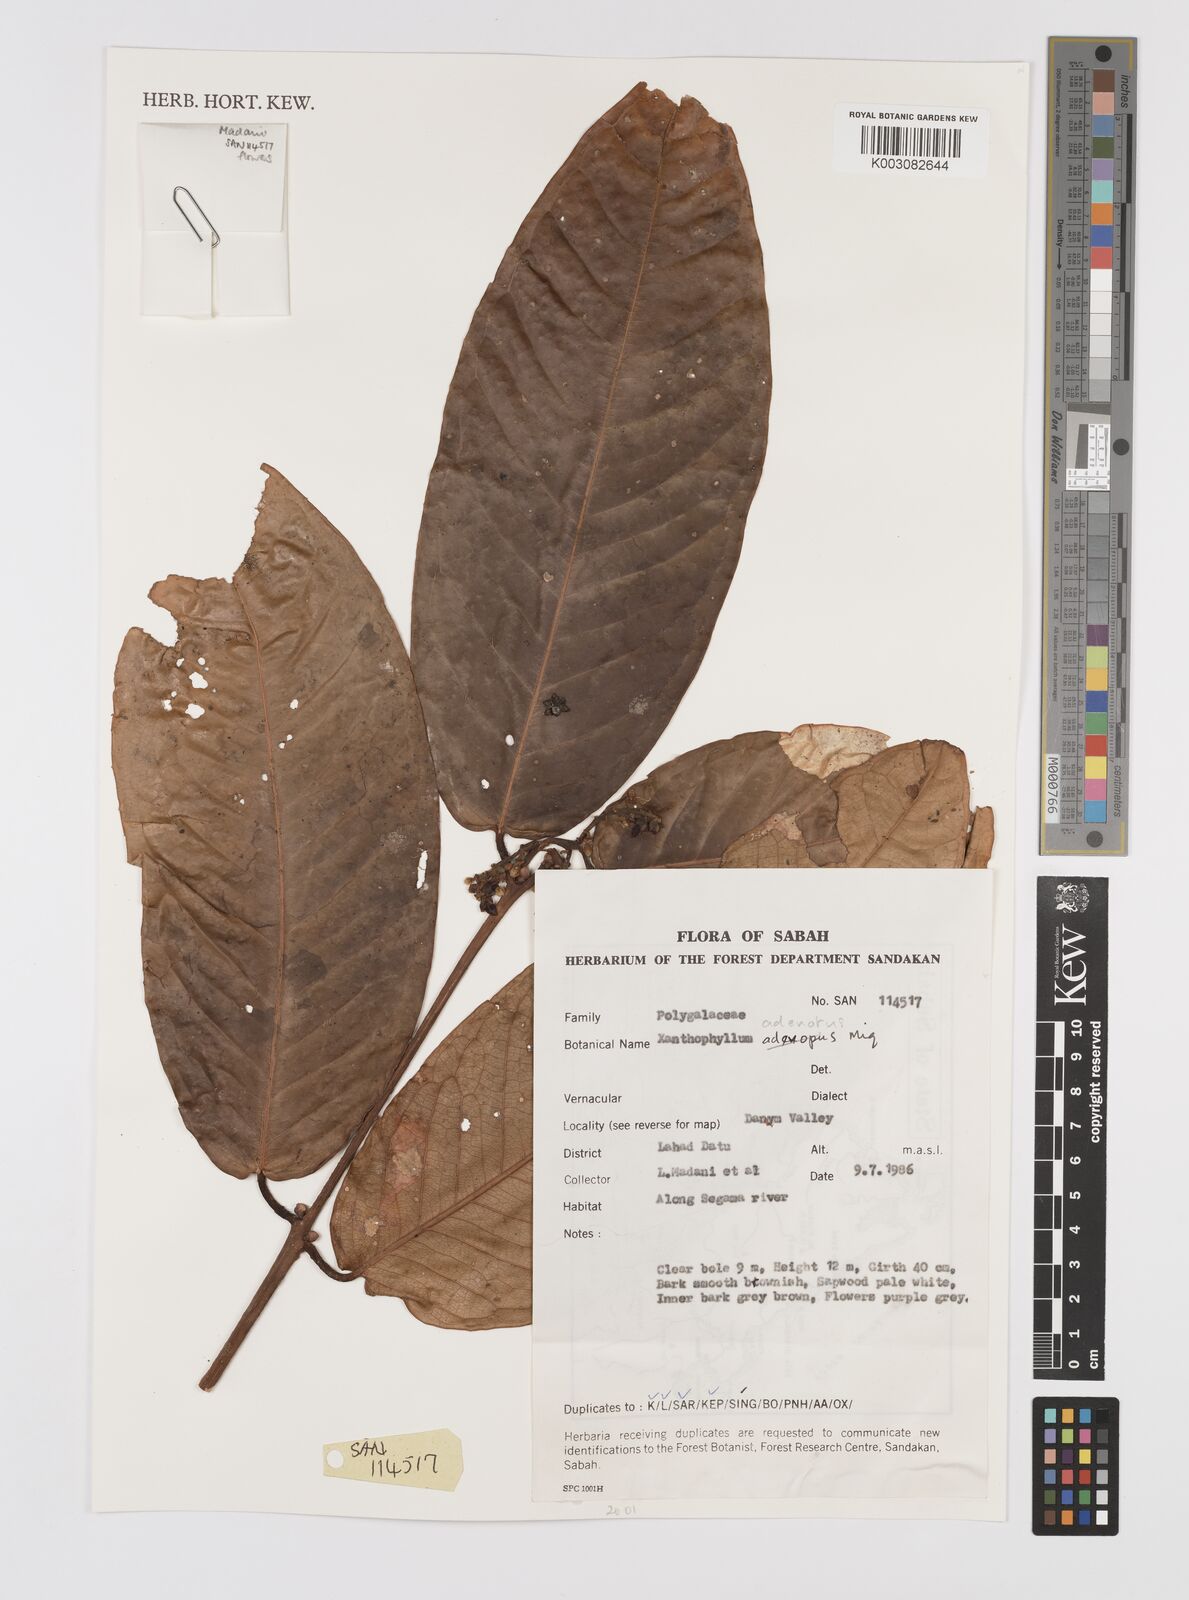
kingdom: Plantae
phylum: Tracheophyta
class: Magnoliopsida
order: Fabales
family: Polygalaceae
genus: Xanthophyllum
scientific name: Xanthophyllum adenotus
